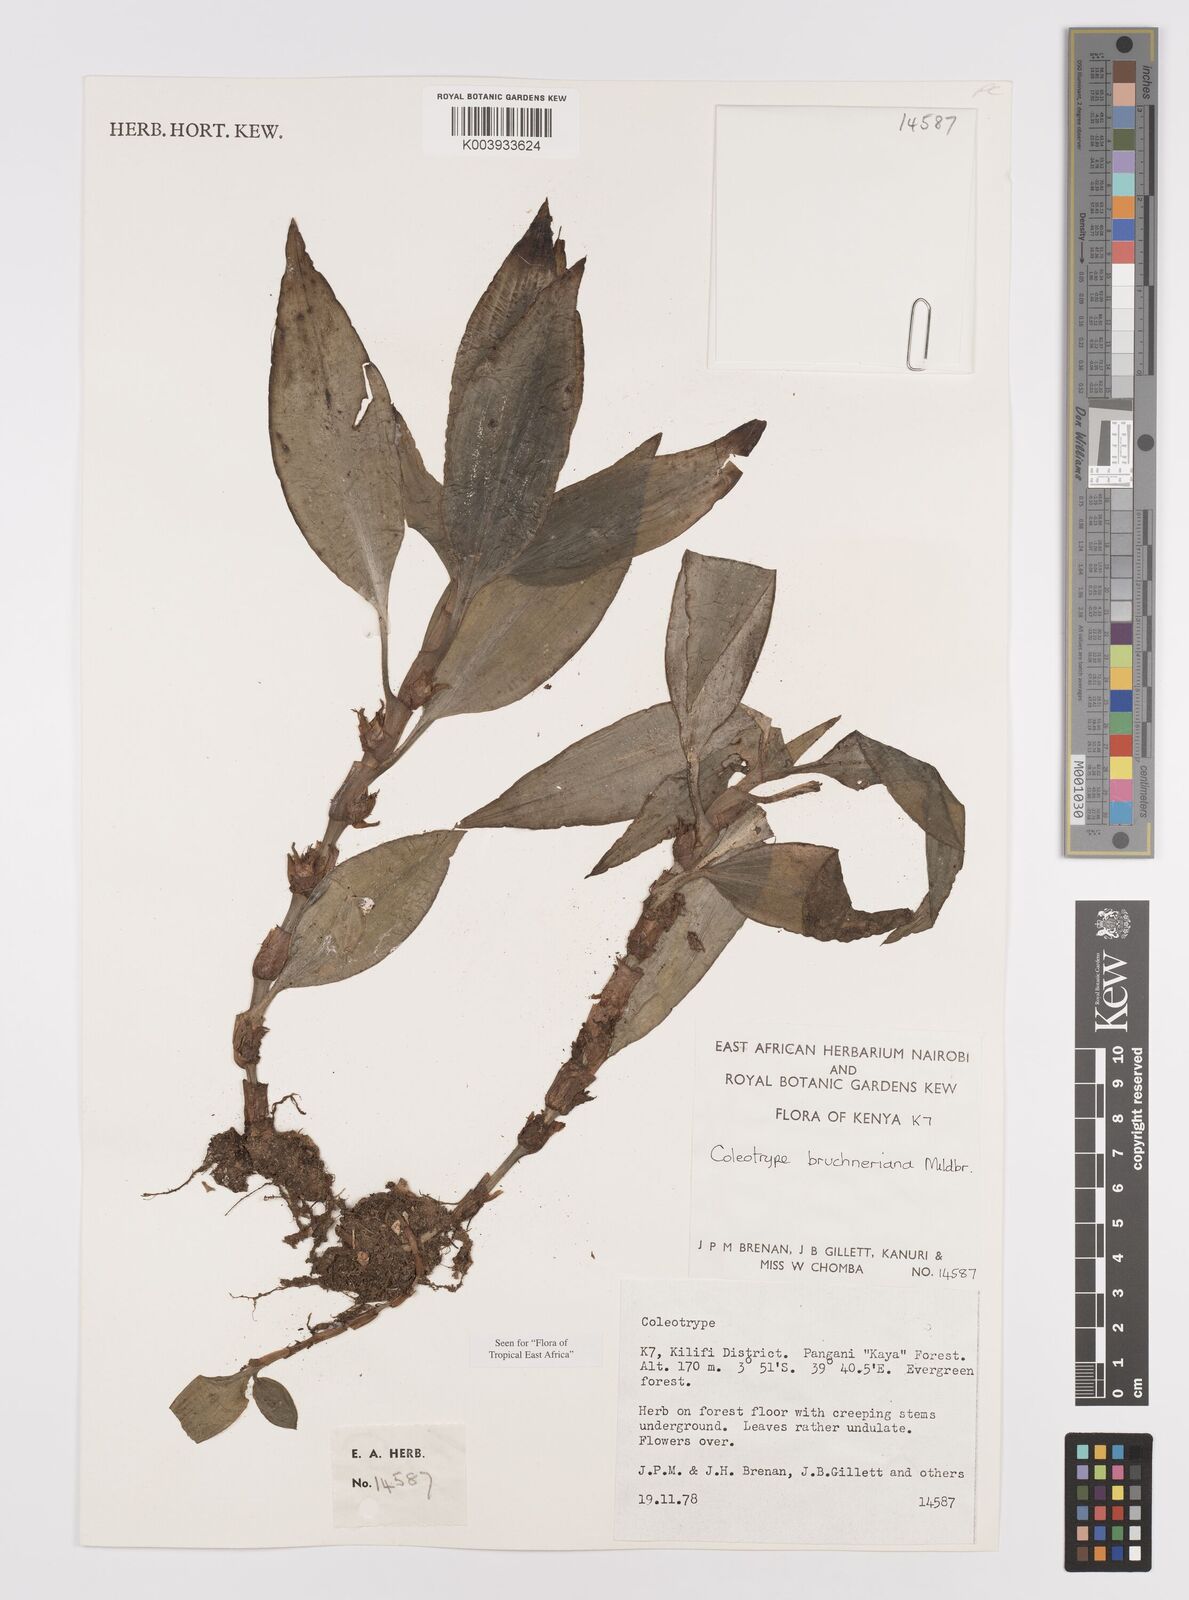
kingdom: Plantae
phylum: Tracheophyta
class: Liliopsida
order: Commelinales
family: Commelinaceae
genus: Coleotrype
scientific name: Coleotrype brueckneriana
